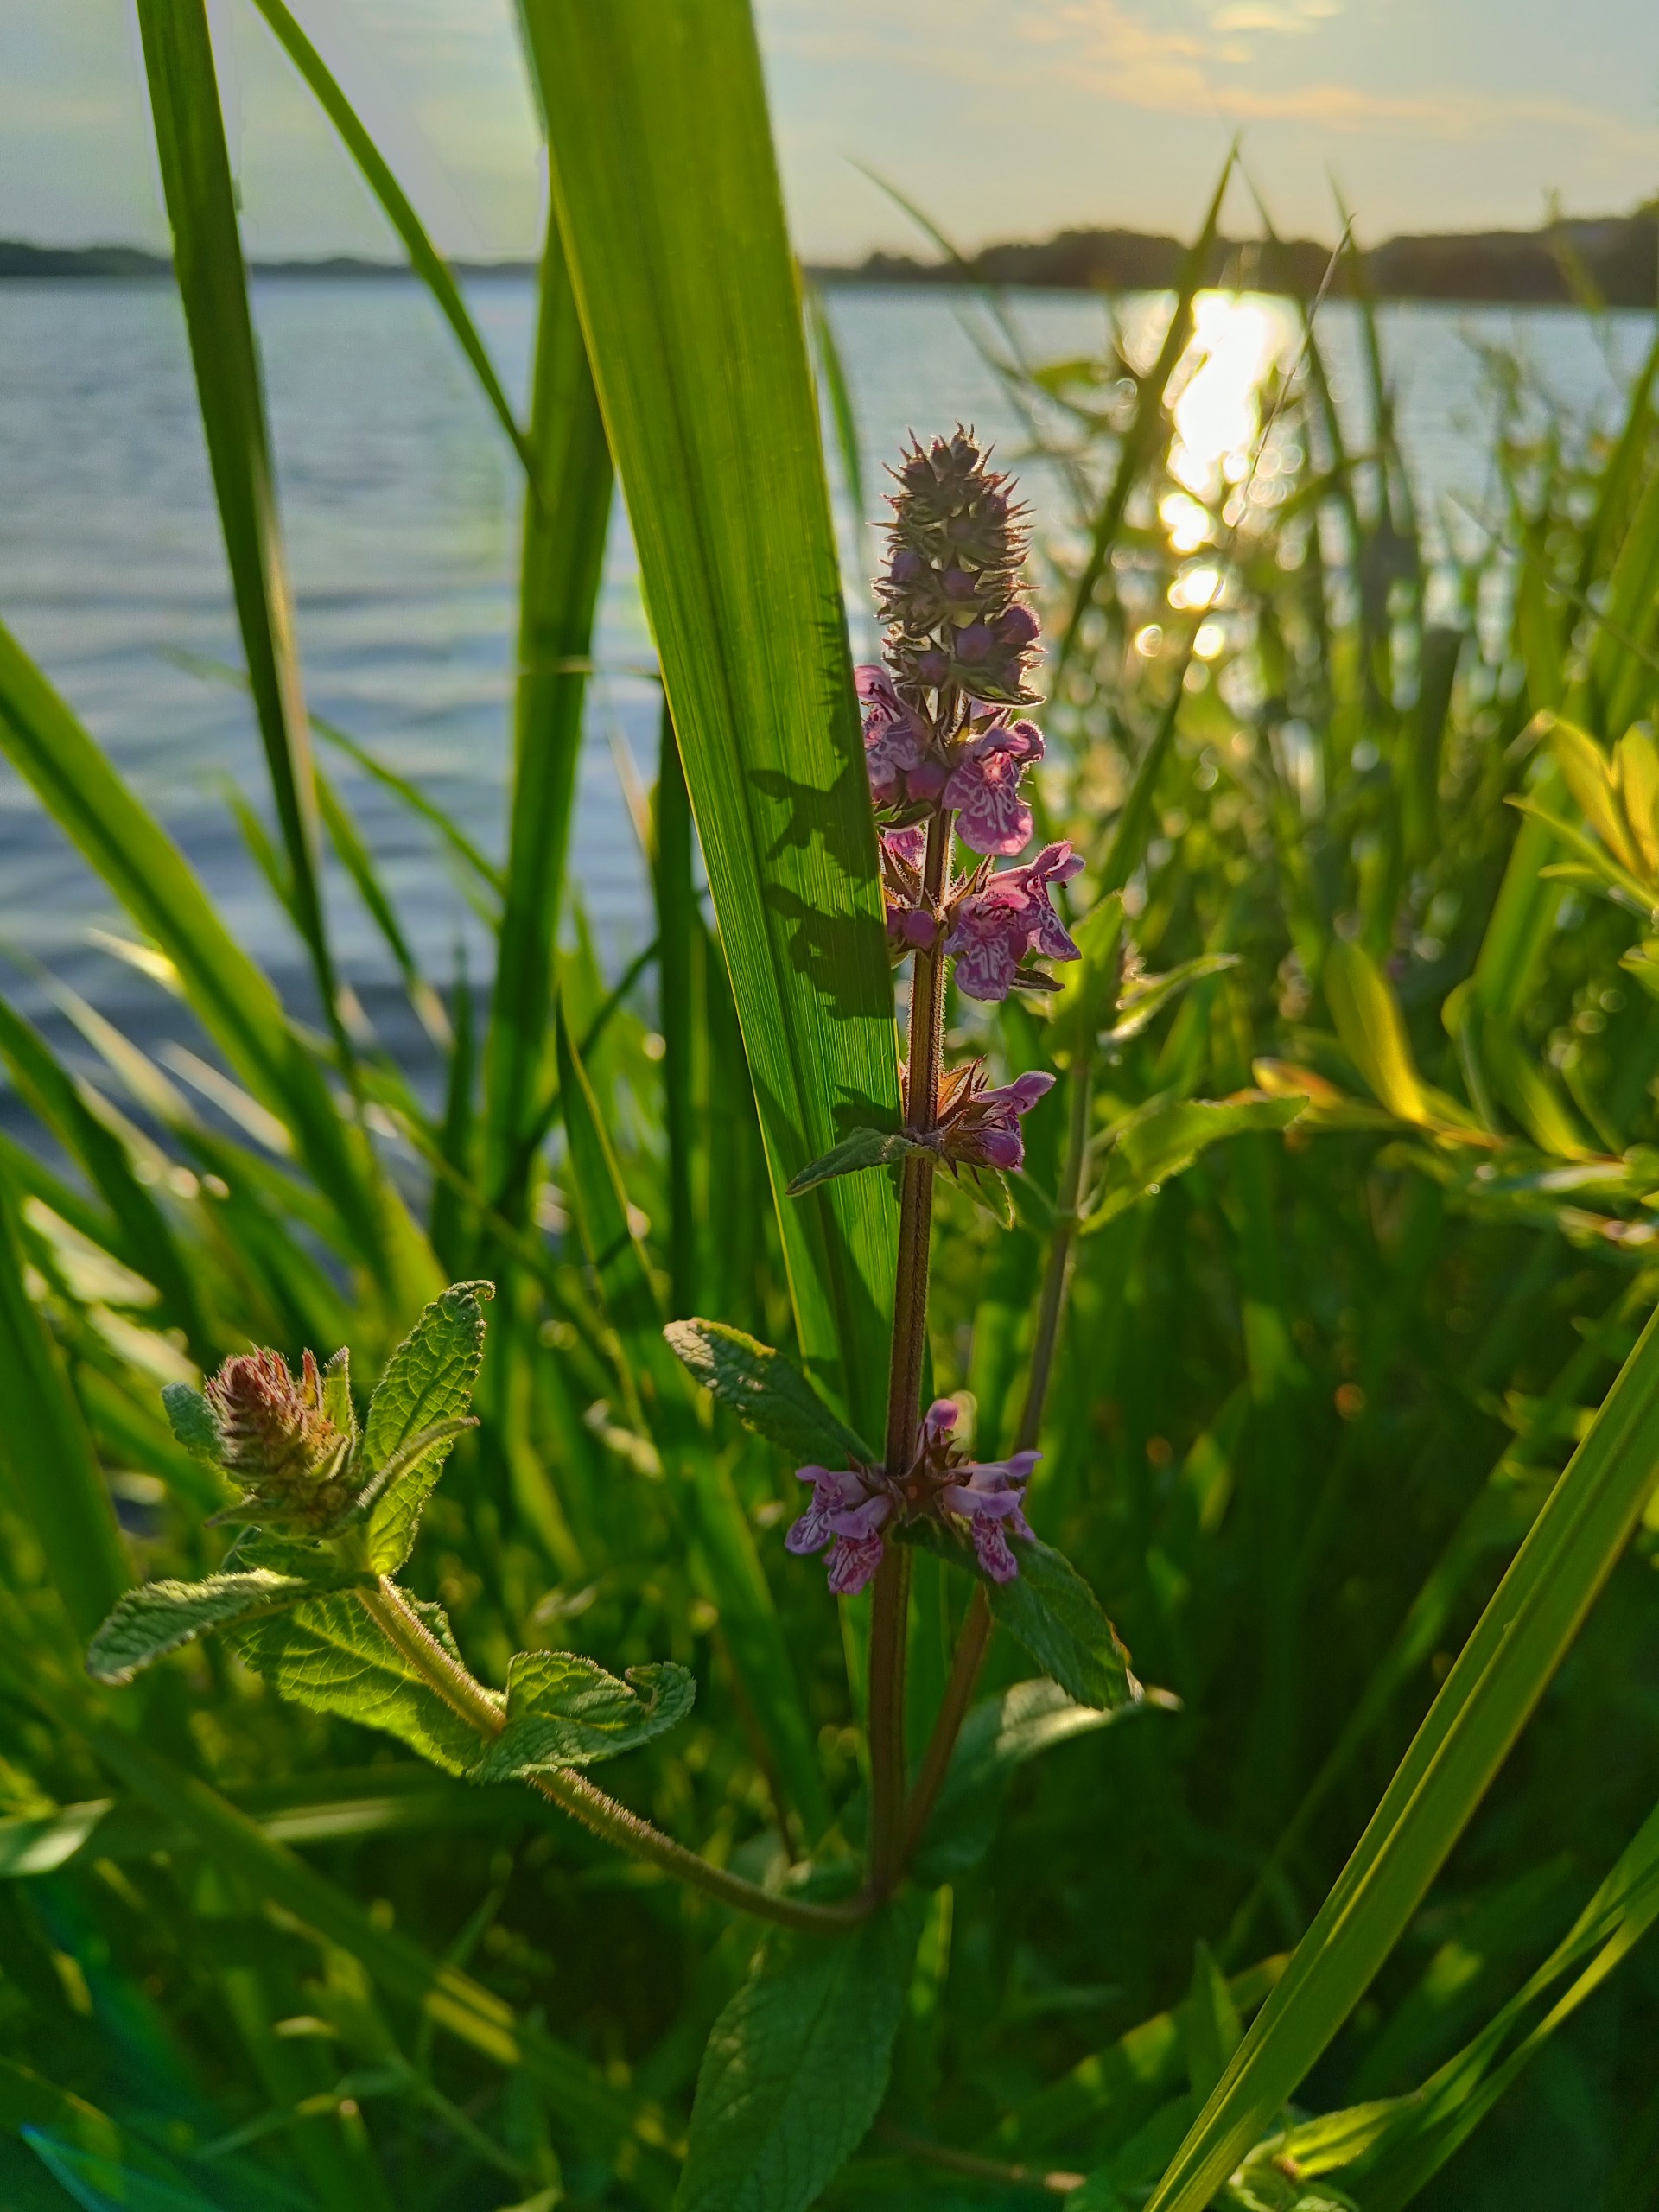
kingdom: Plantae
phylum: Tracheophyta
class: Magnoliopsida
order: Lamiales
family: Lamiaceae
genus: Stachys
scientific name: Stachys palustris
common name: Kær-galtetand
